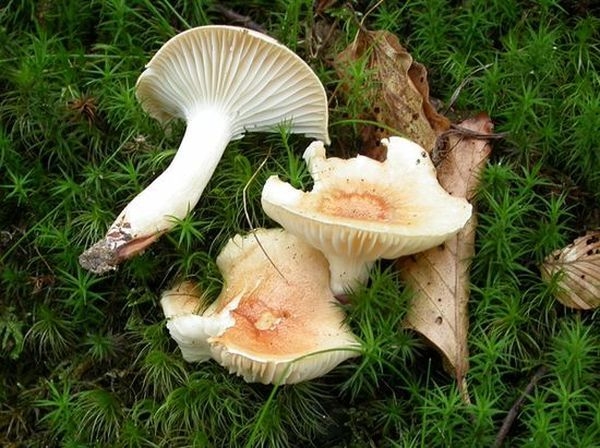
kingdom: Fungi
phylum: Basidiomycota
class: Agaricomycetes
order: Agaricales
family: Hygrophoraceae
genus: Hygrophorus
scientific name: Hygrophorus nemoreus
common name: lund-sneglehat
